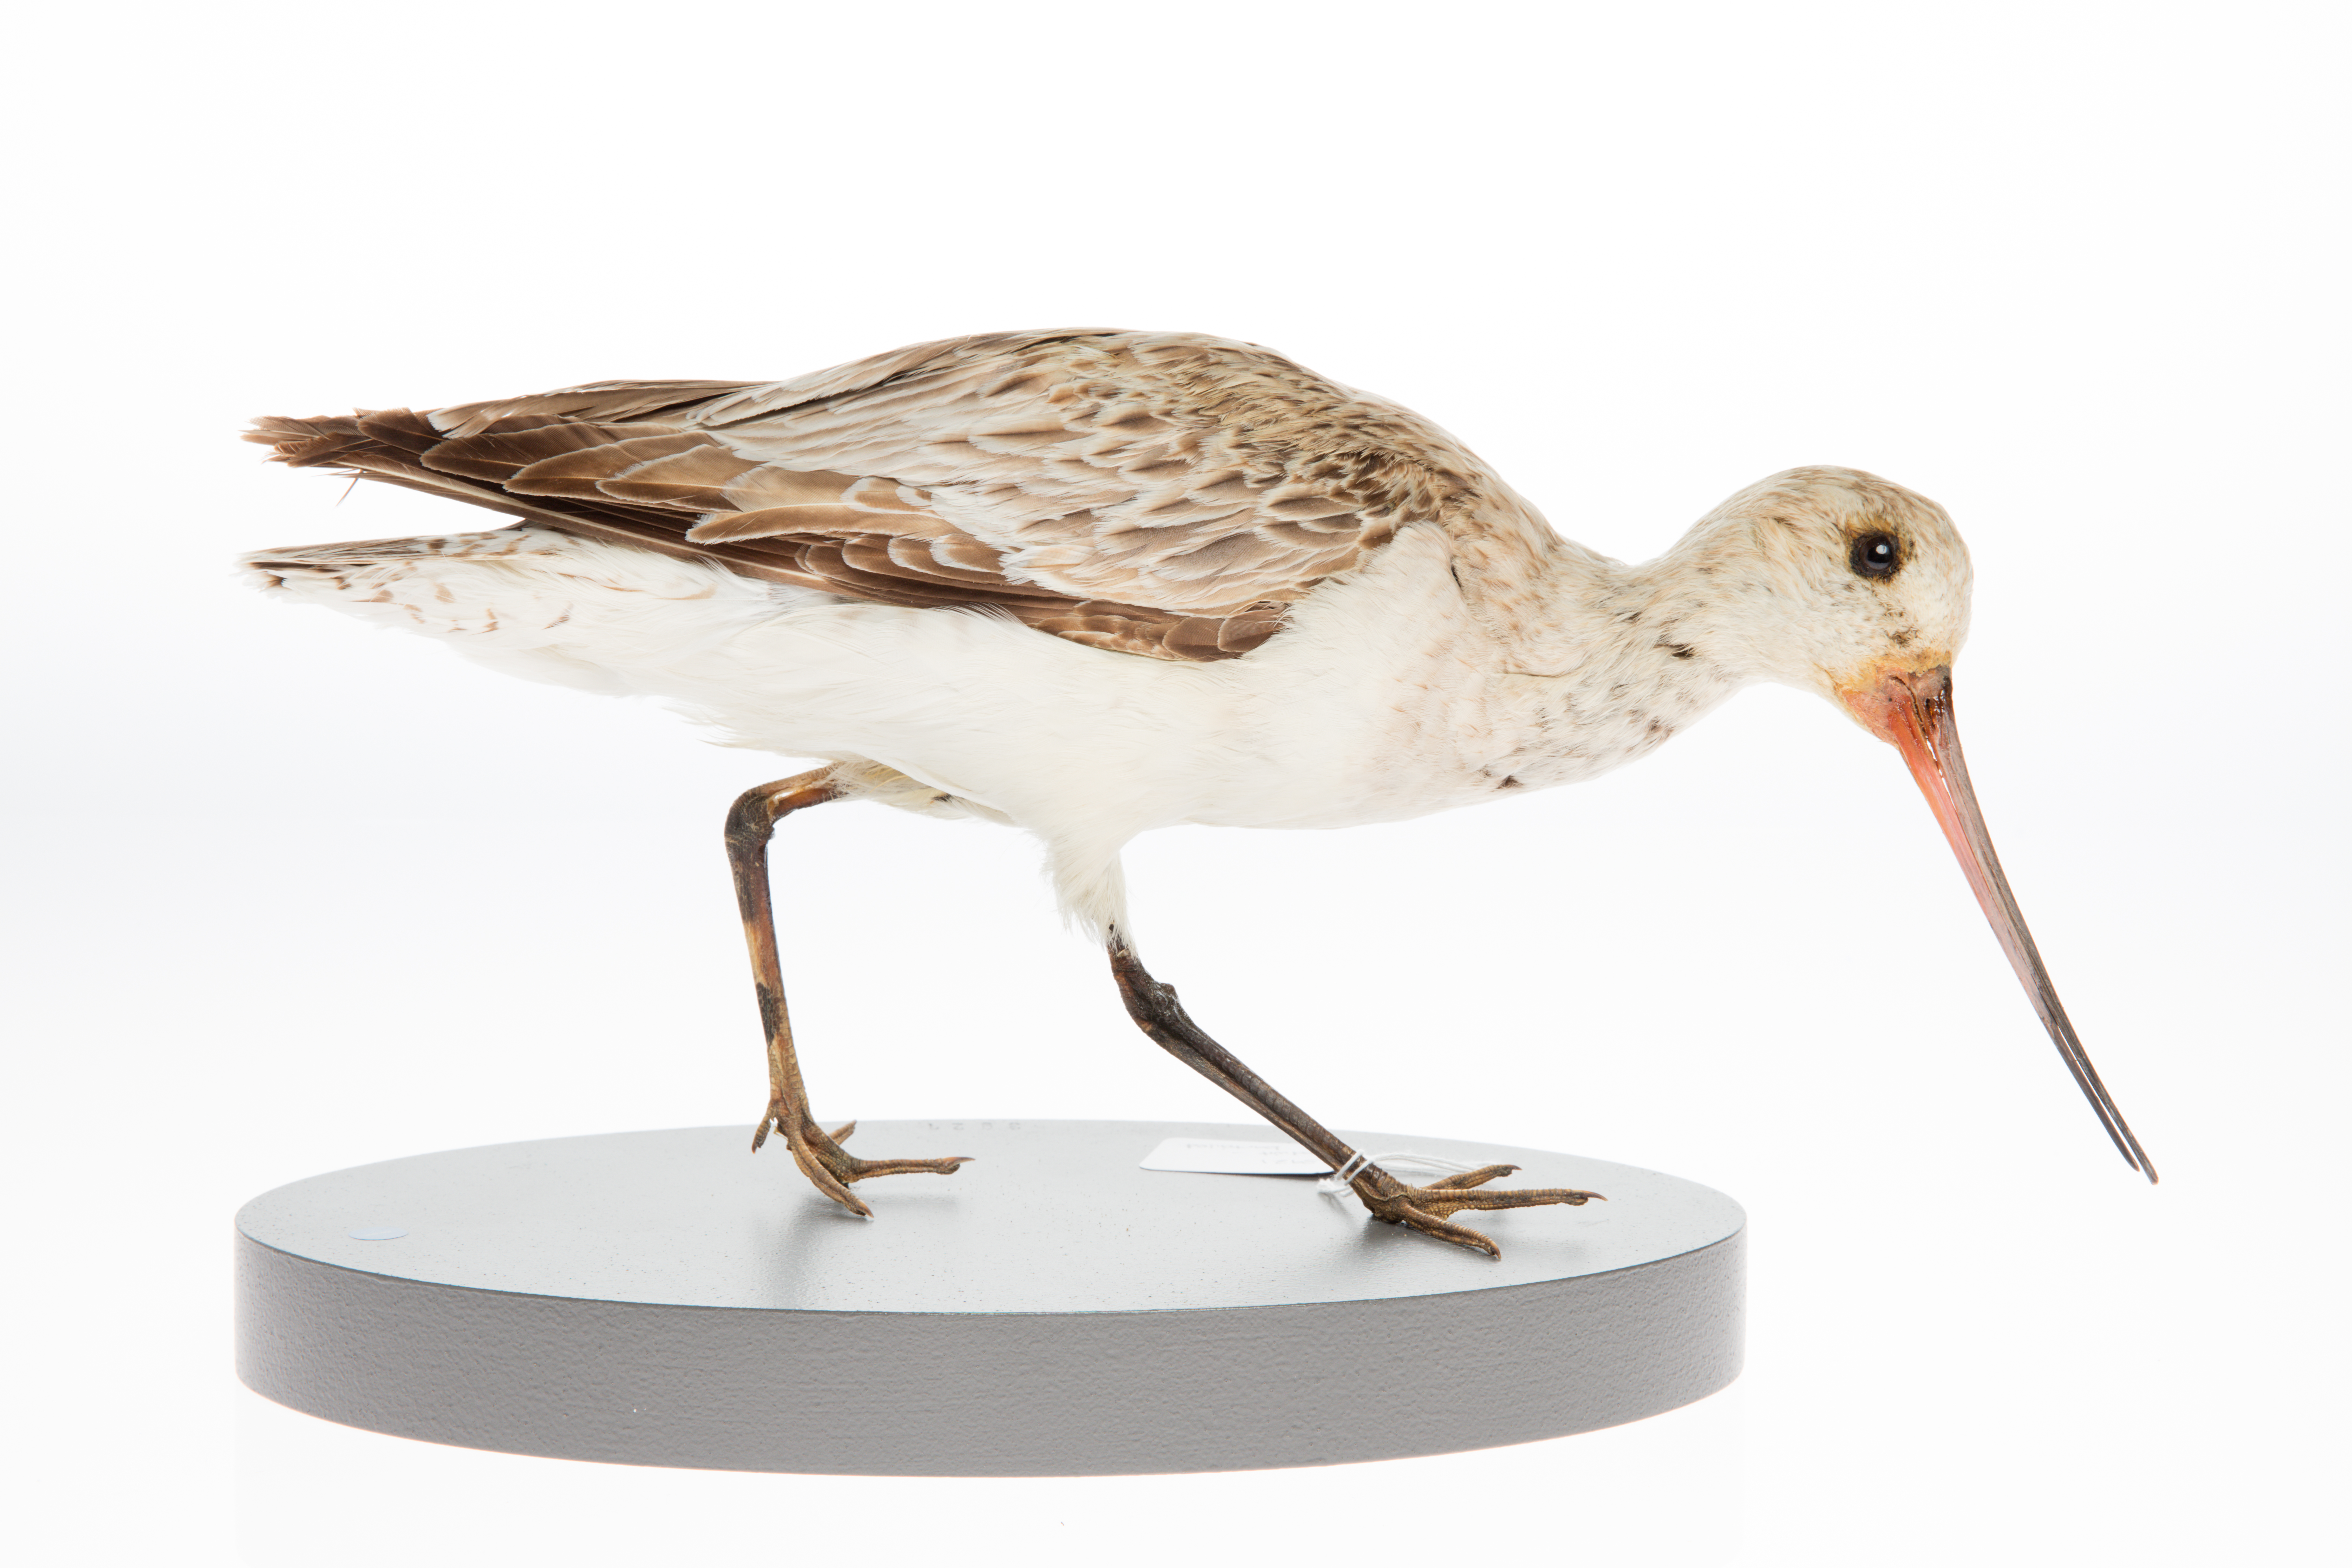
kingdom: Animalia
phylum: Chordata
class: Aves
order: Charadriiformes
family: Scolopacidae
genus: Limosa
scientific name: Limosa lapponica
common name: Bar-tailed godwit
